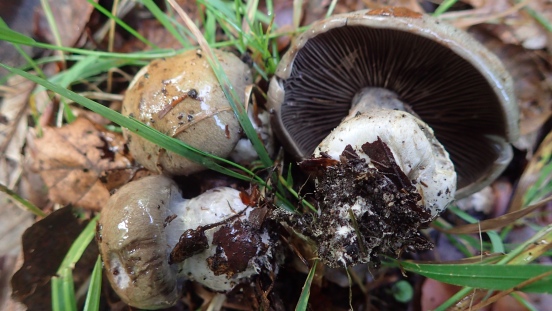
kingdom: Fungi
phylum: Basidiomycota
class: Agaricomycetes
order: Agaricales
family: Cortinariaceae
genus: Cortinarius
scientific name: Cortinarius
